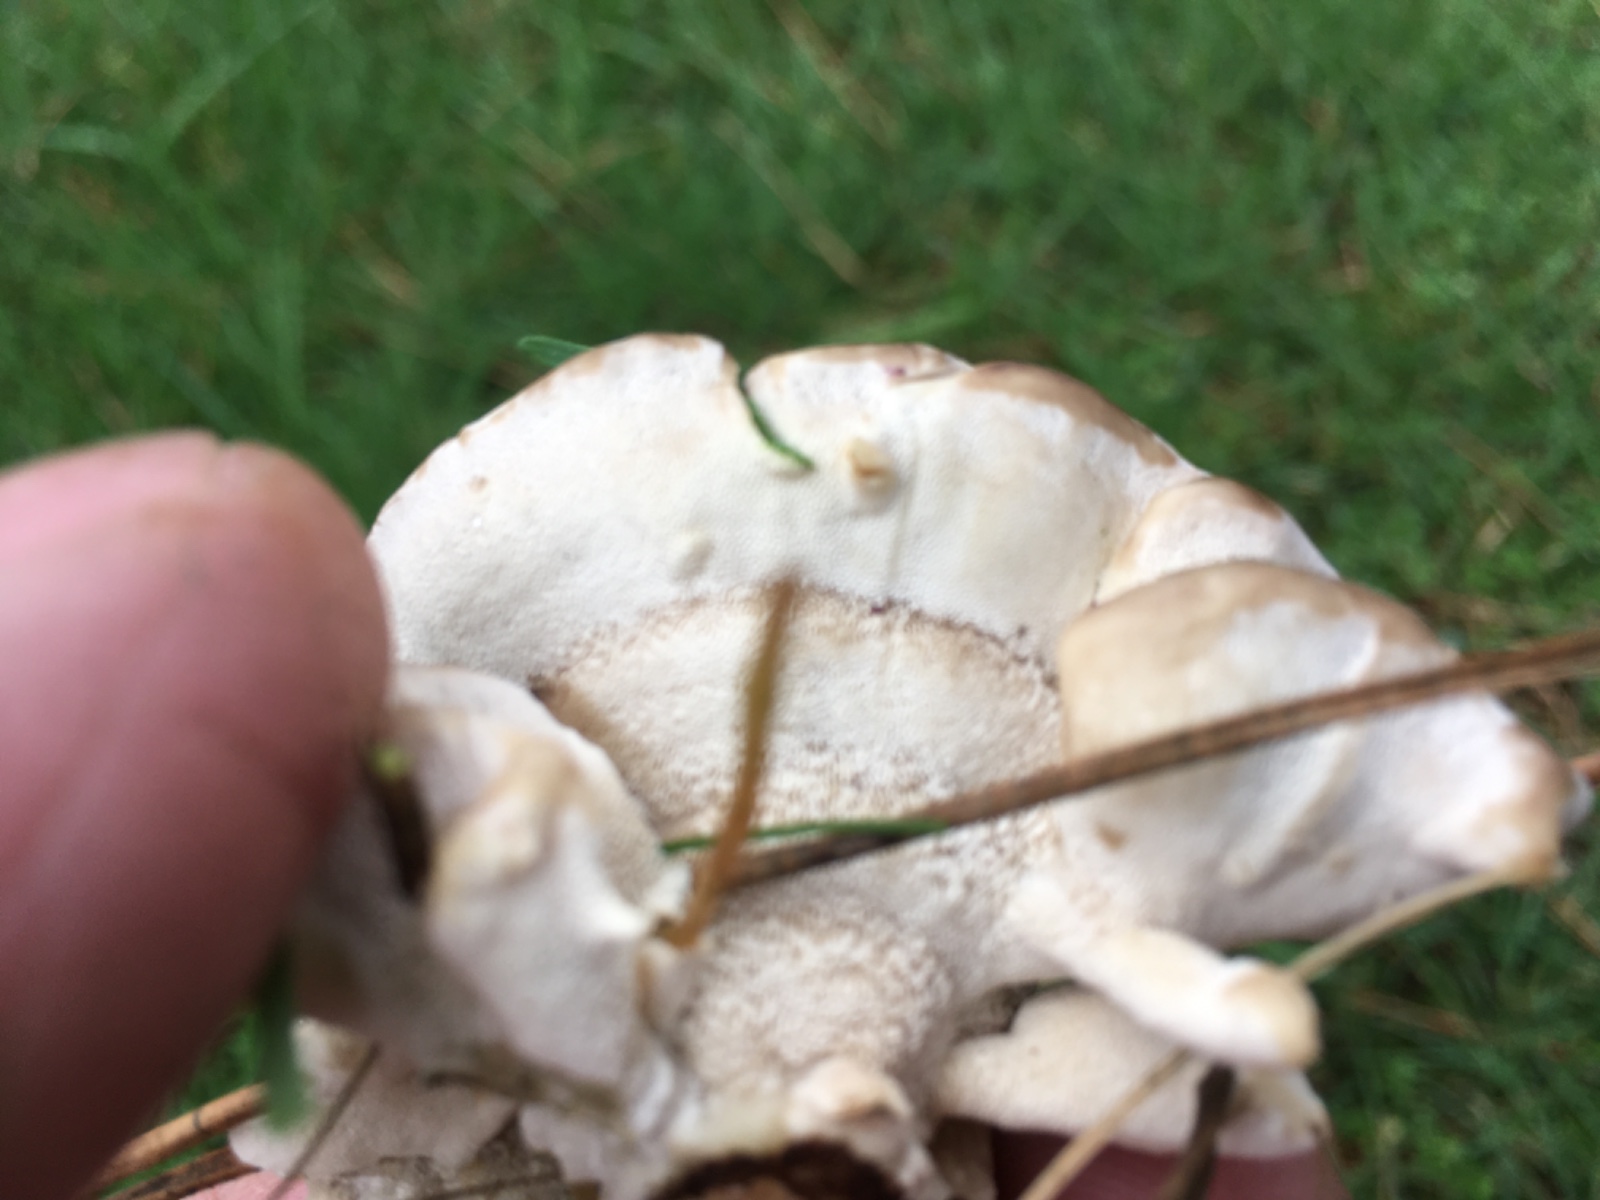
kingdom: Fungi
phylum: Basidiomycota
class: Agaricomycetes
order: Polyporales
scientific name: Polyporales
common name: poresvampordenen
